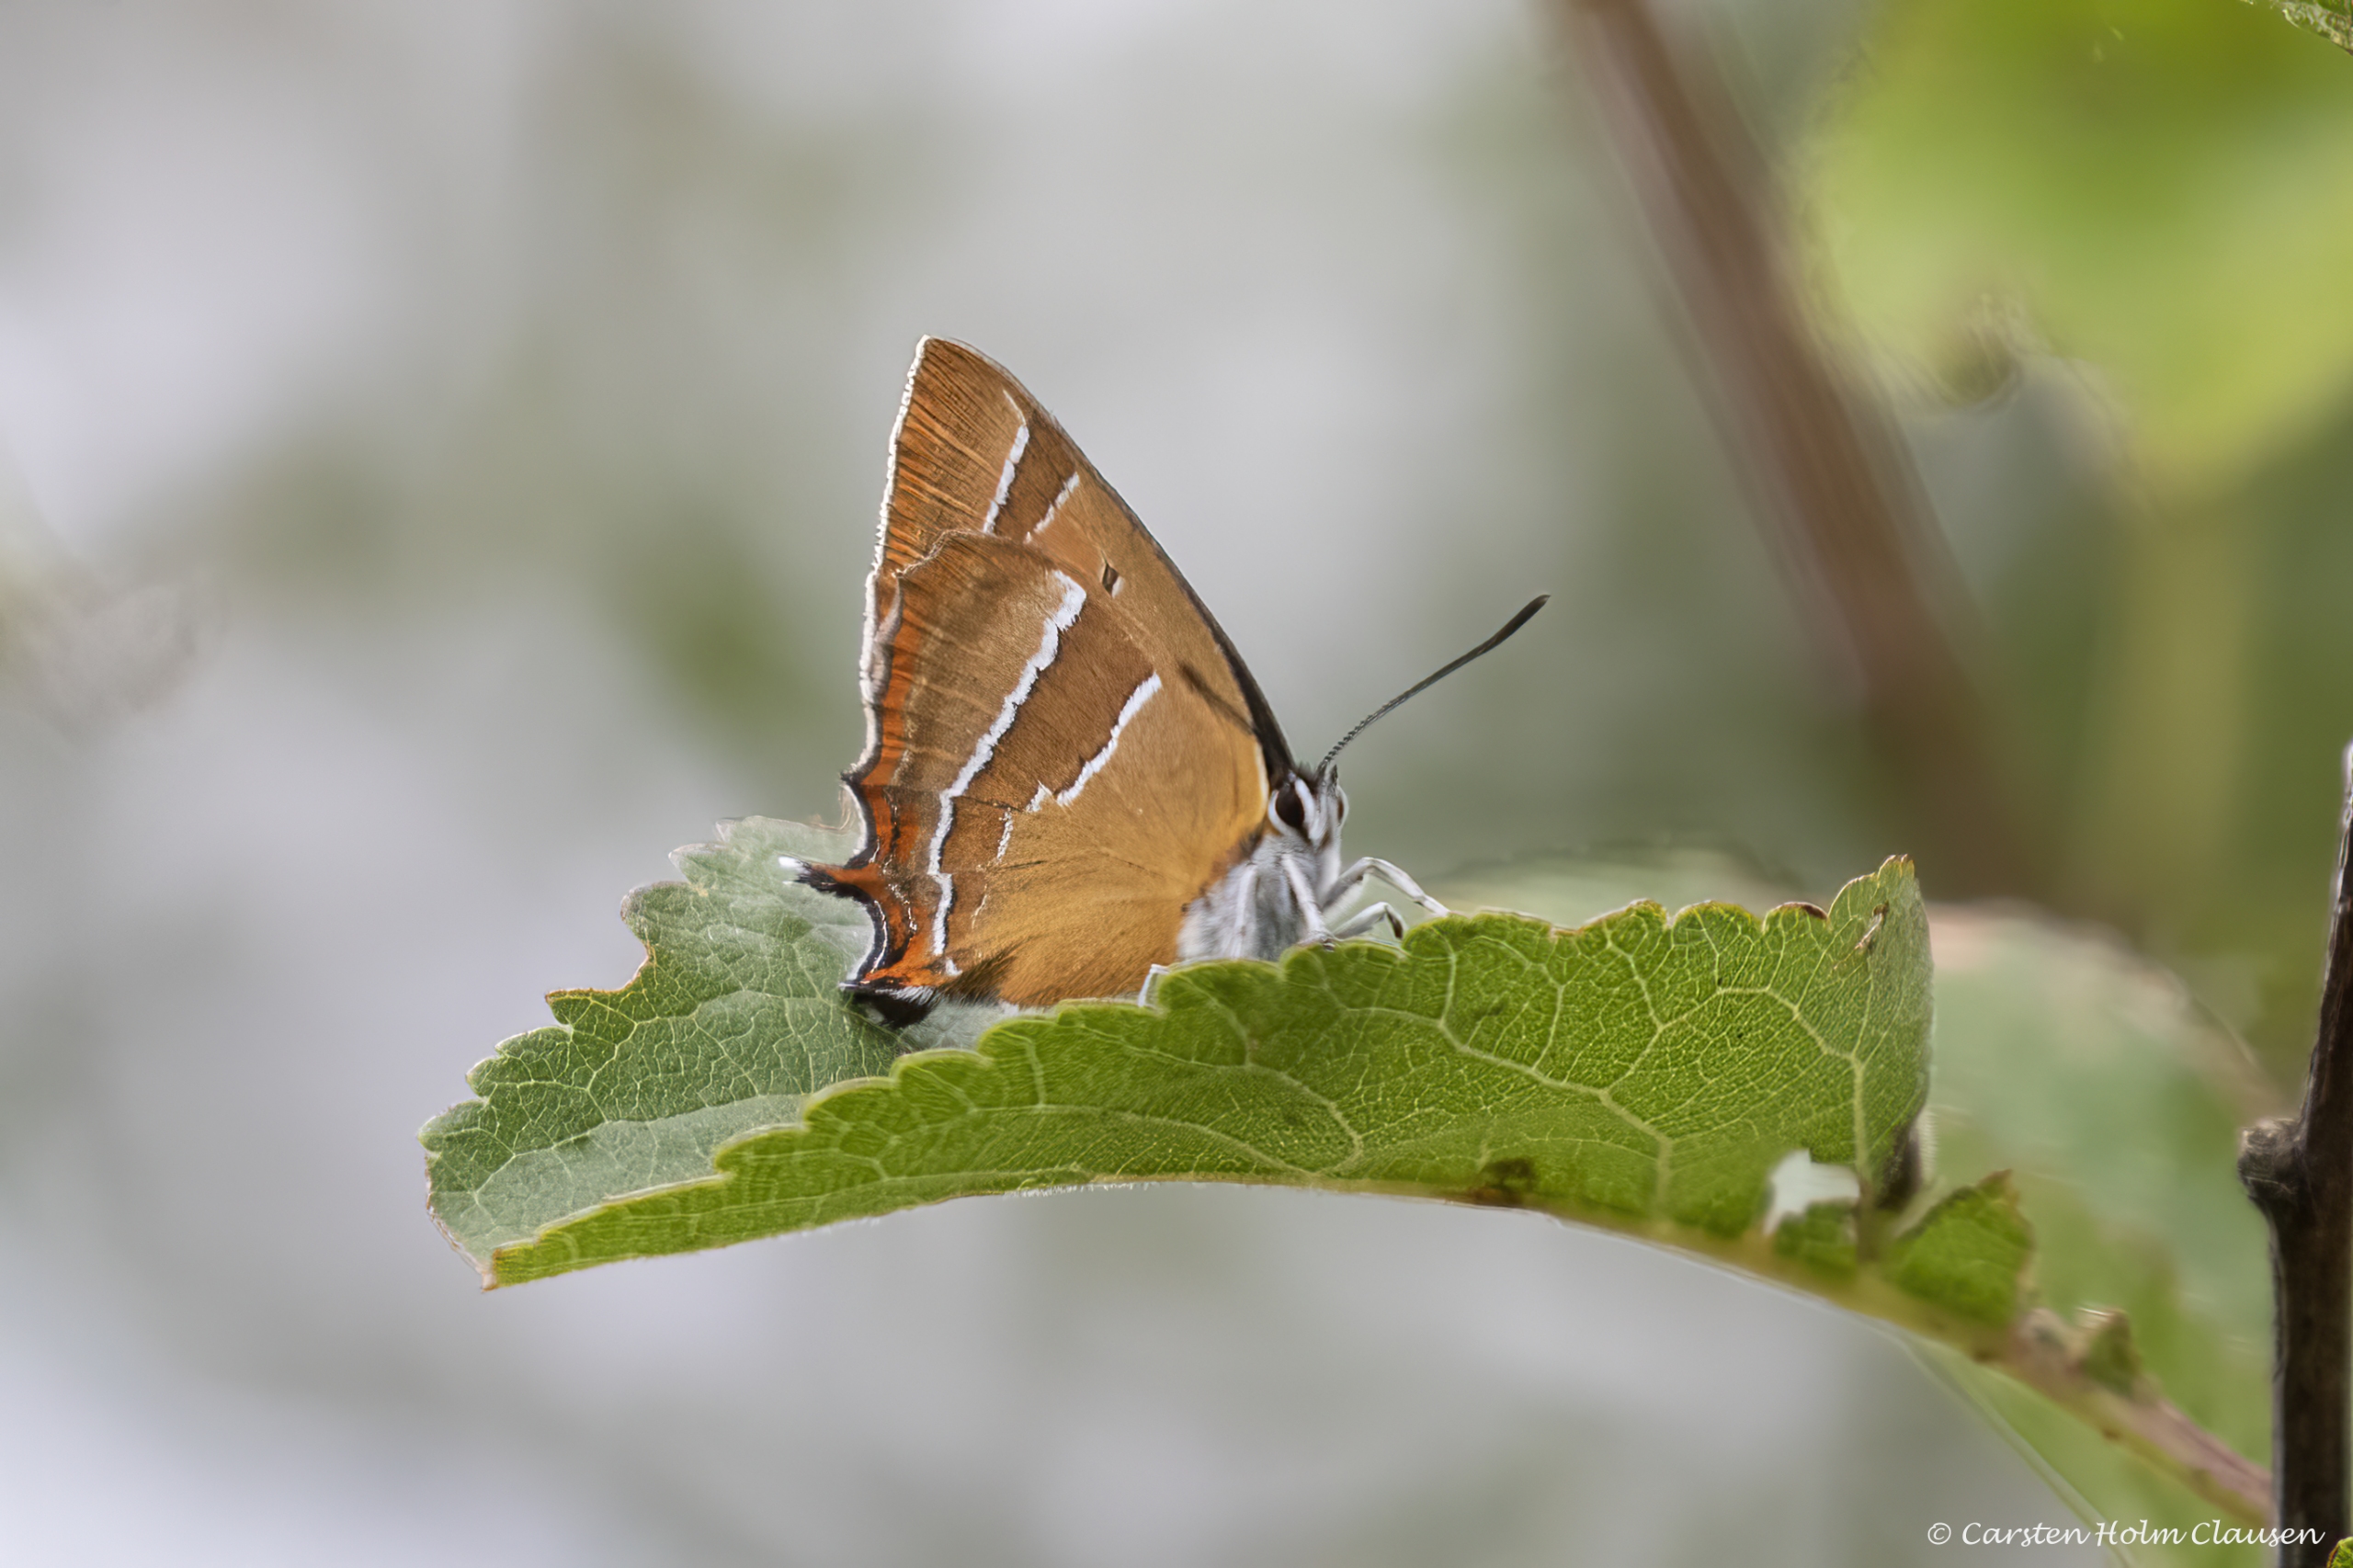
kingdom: Animalia
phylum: Arthropoda
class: Insecta
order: Lepidoptera
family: Lycaenidae
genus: Thecla
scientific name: Thecla betulae
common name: Guldhale
